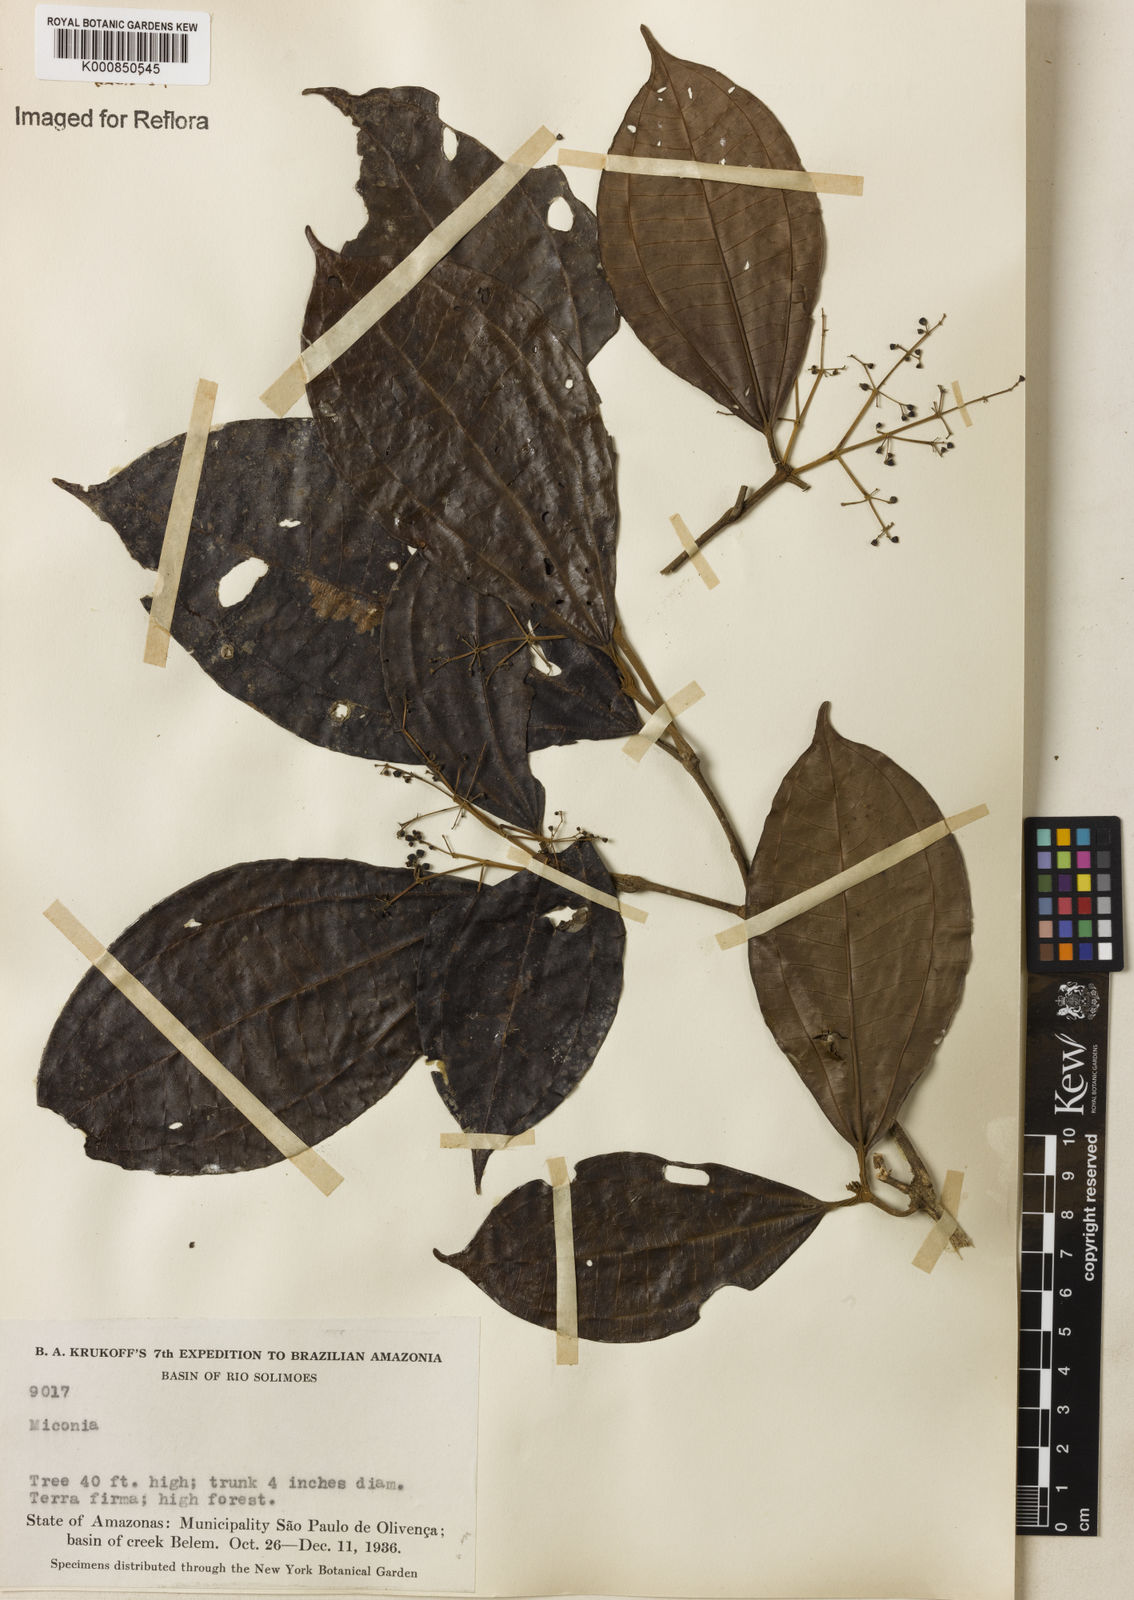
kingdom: Plantae
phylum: Tracheophyta
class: Magnoliopsida
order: Myrtales
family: Melastomataceae
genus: Miconia
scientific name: Miconia
